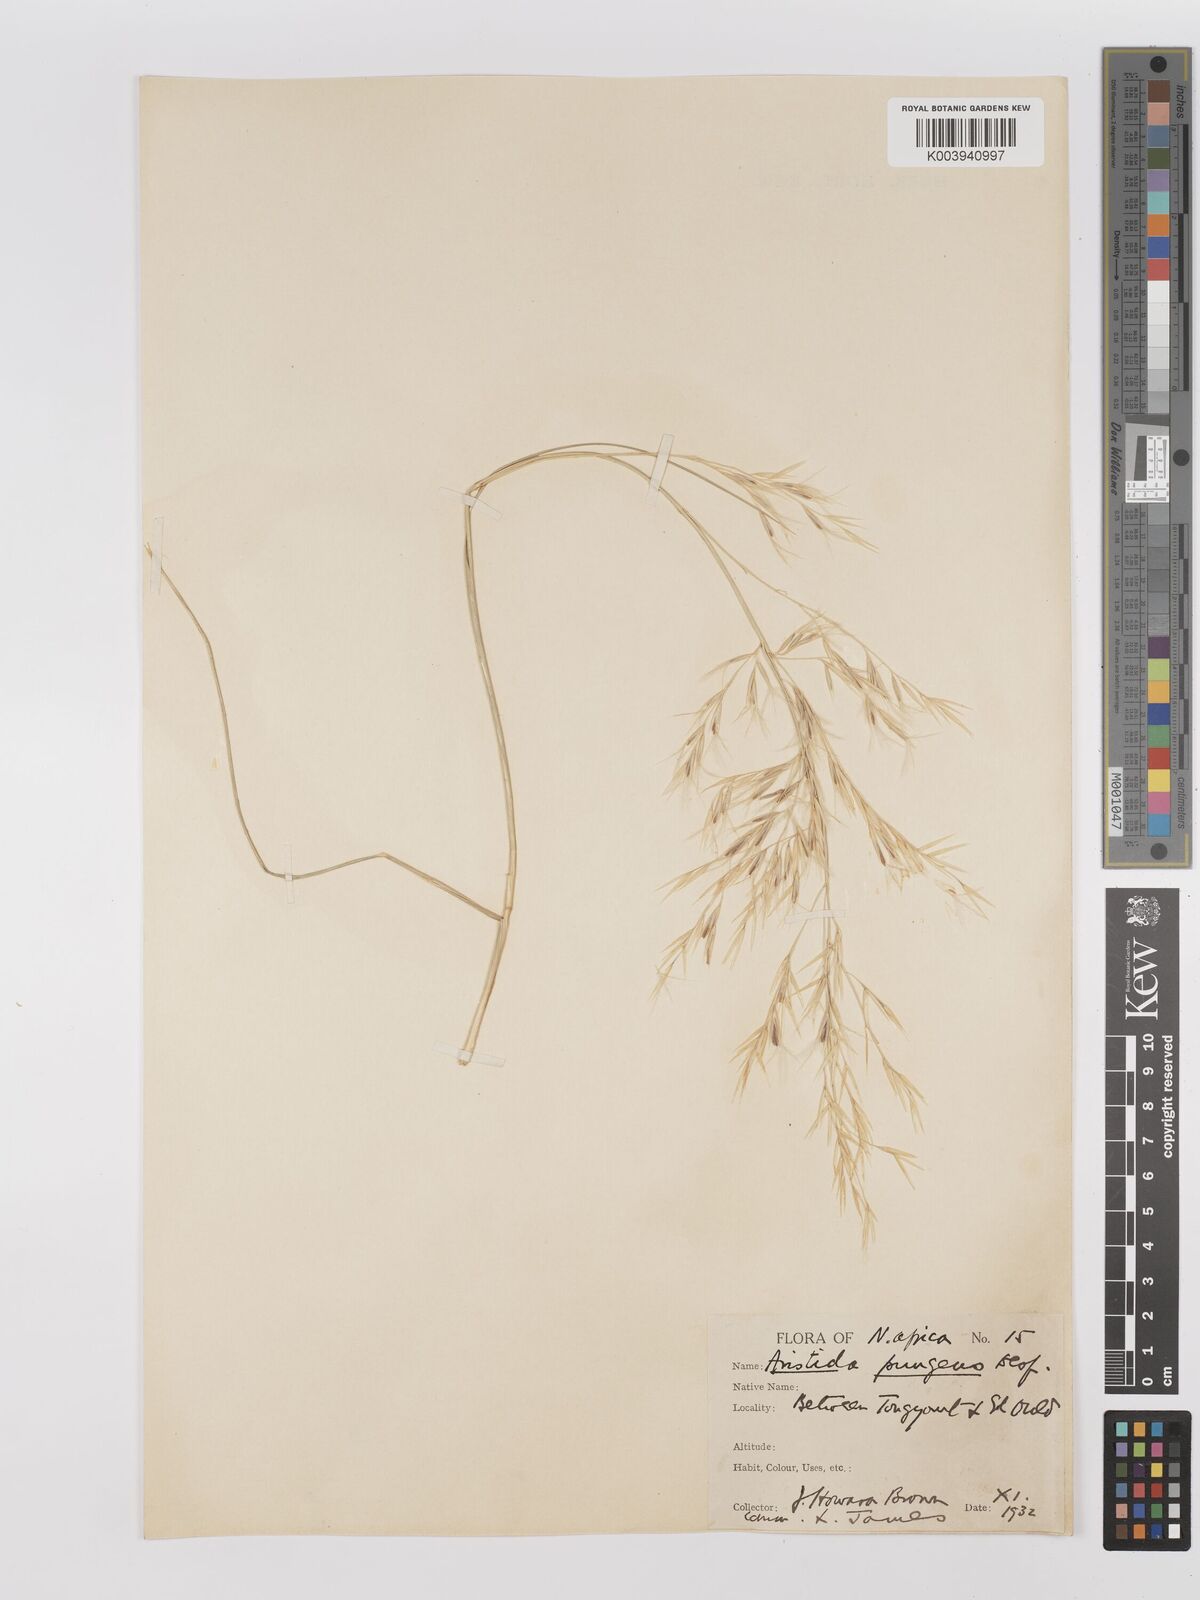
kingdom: Plantae
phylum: Tracheophyta
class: Liliopsida
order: Poales
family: Poaceae
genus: Stipagrostis
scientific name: Stipagrostis pungens
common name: Three-awn grass
